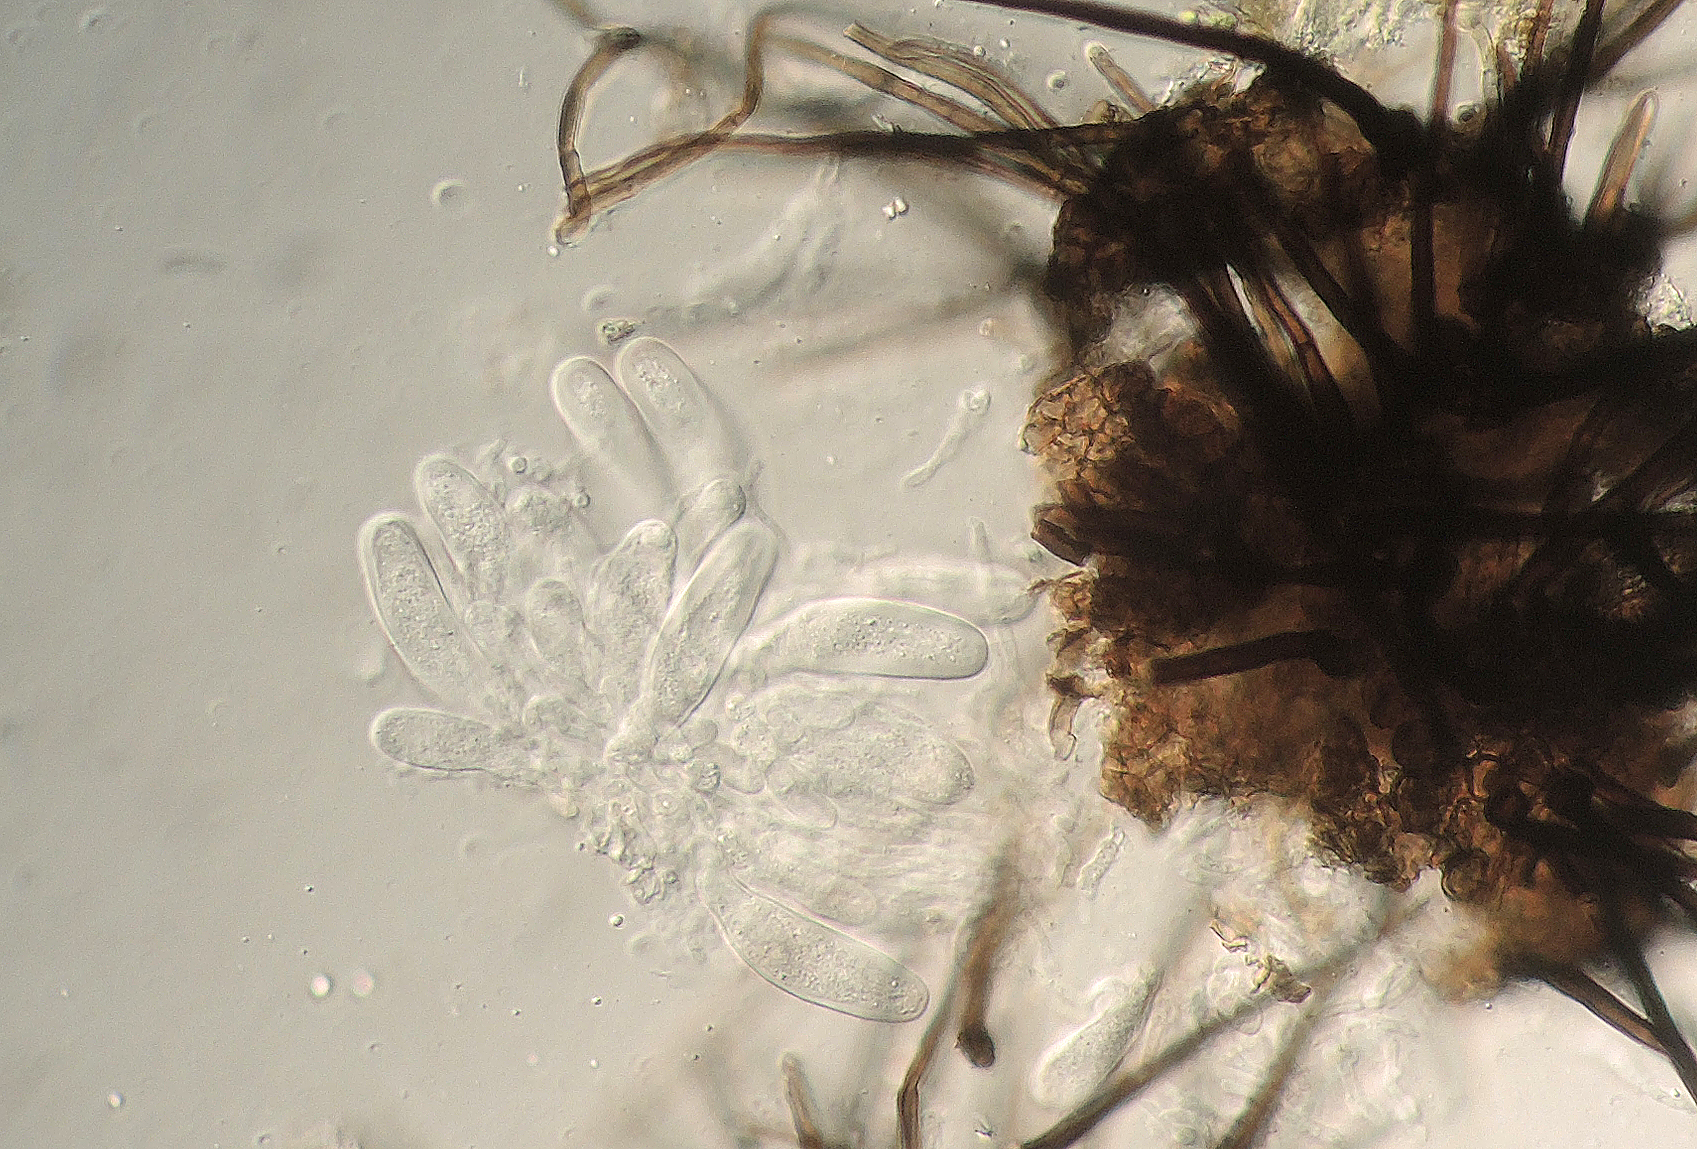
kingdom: Fungi
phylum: Ascomycota
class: Dothideomycetes
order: Capnodiales
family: Metacapnodiaceae
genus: Protoventuria
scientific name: Protoventuria tetraspora
